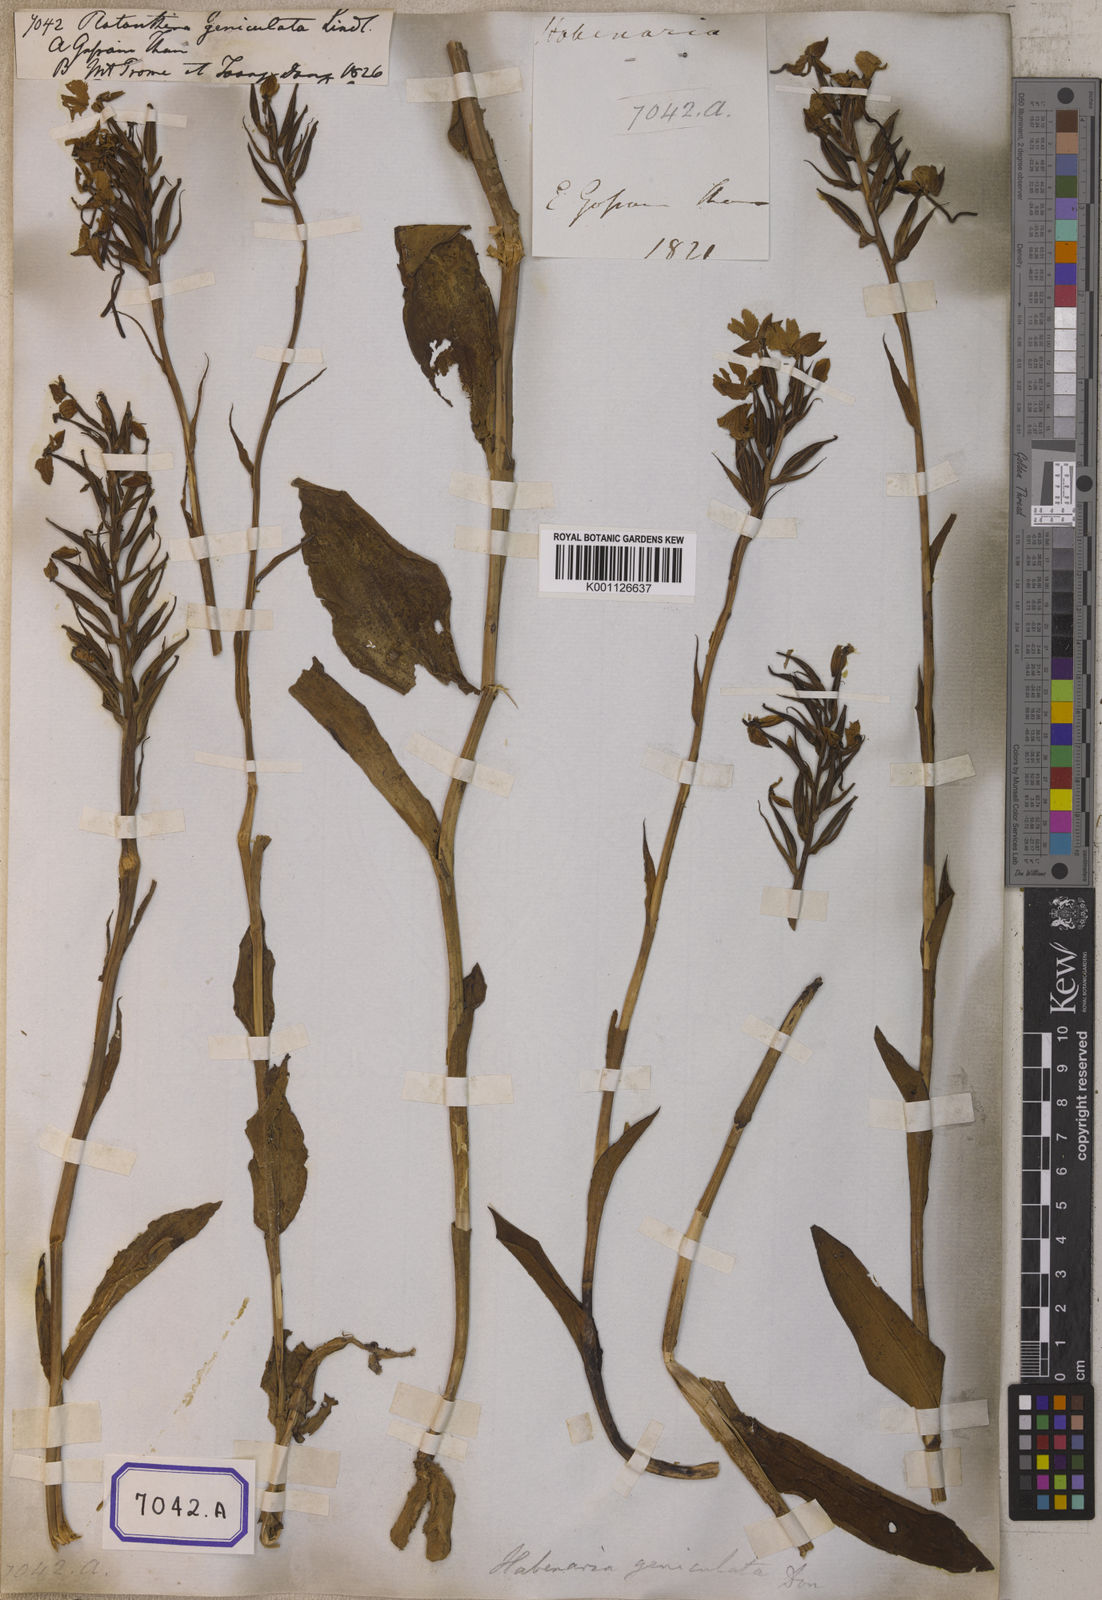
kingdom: Plantae
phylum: Tracheophyta
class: Liliopsida
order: Asparagales
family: Orchidaceae
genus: Platanthera
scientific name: Platanthera
